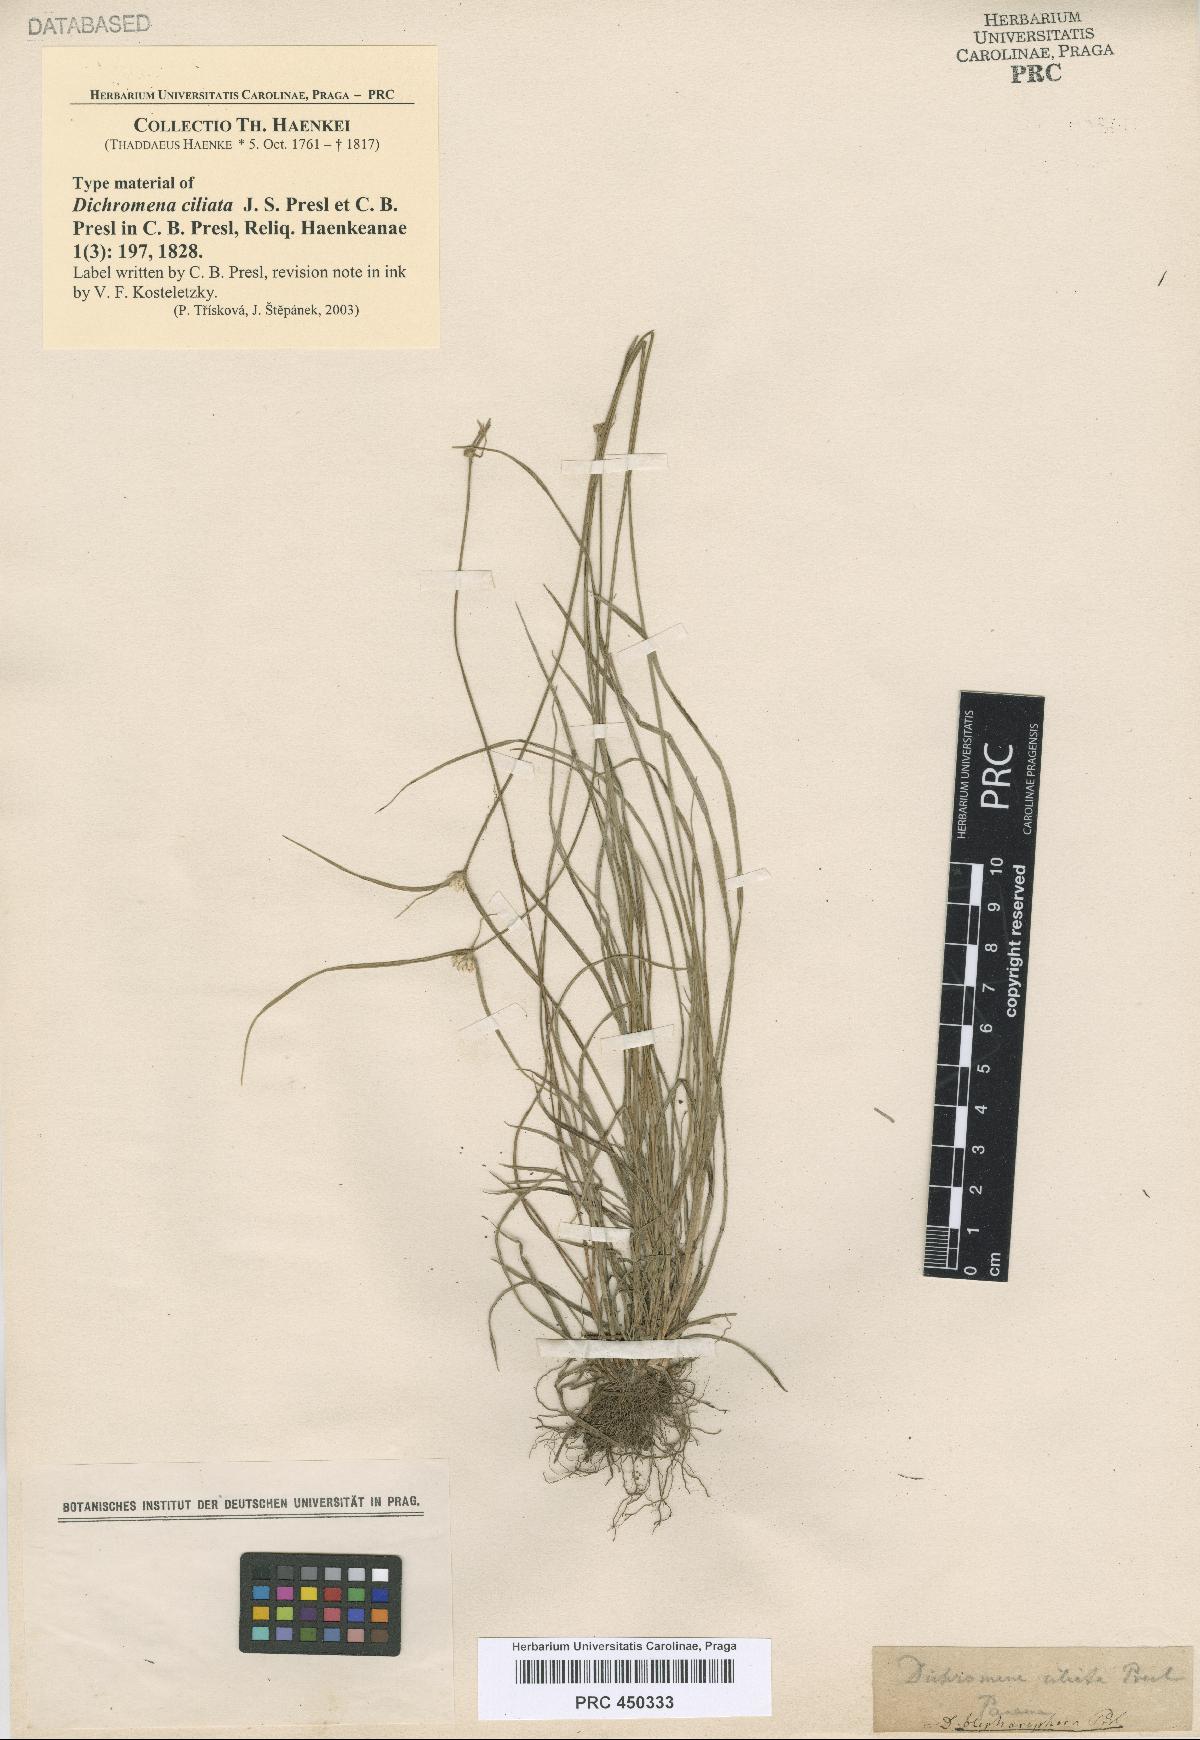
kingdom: Plantae
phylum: Tracheophyta
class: Liliopsida
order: Poales
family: Cyperaceae
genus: Rhynchospora
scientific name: Rhynchospora blepharophora
